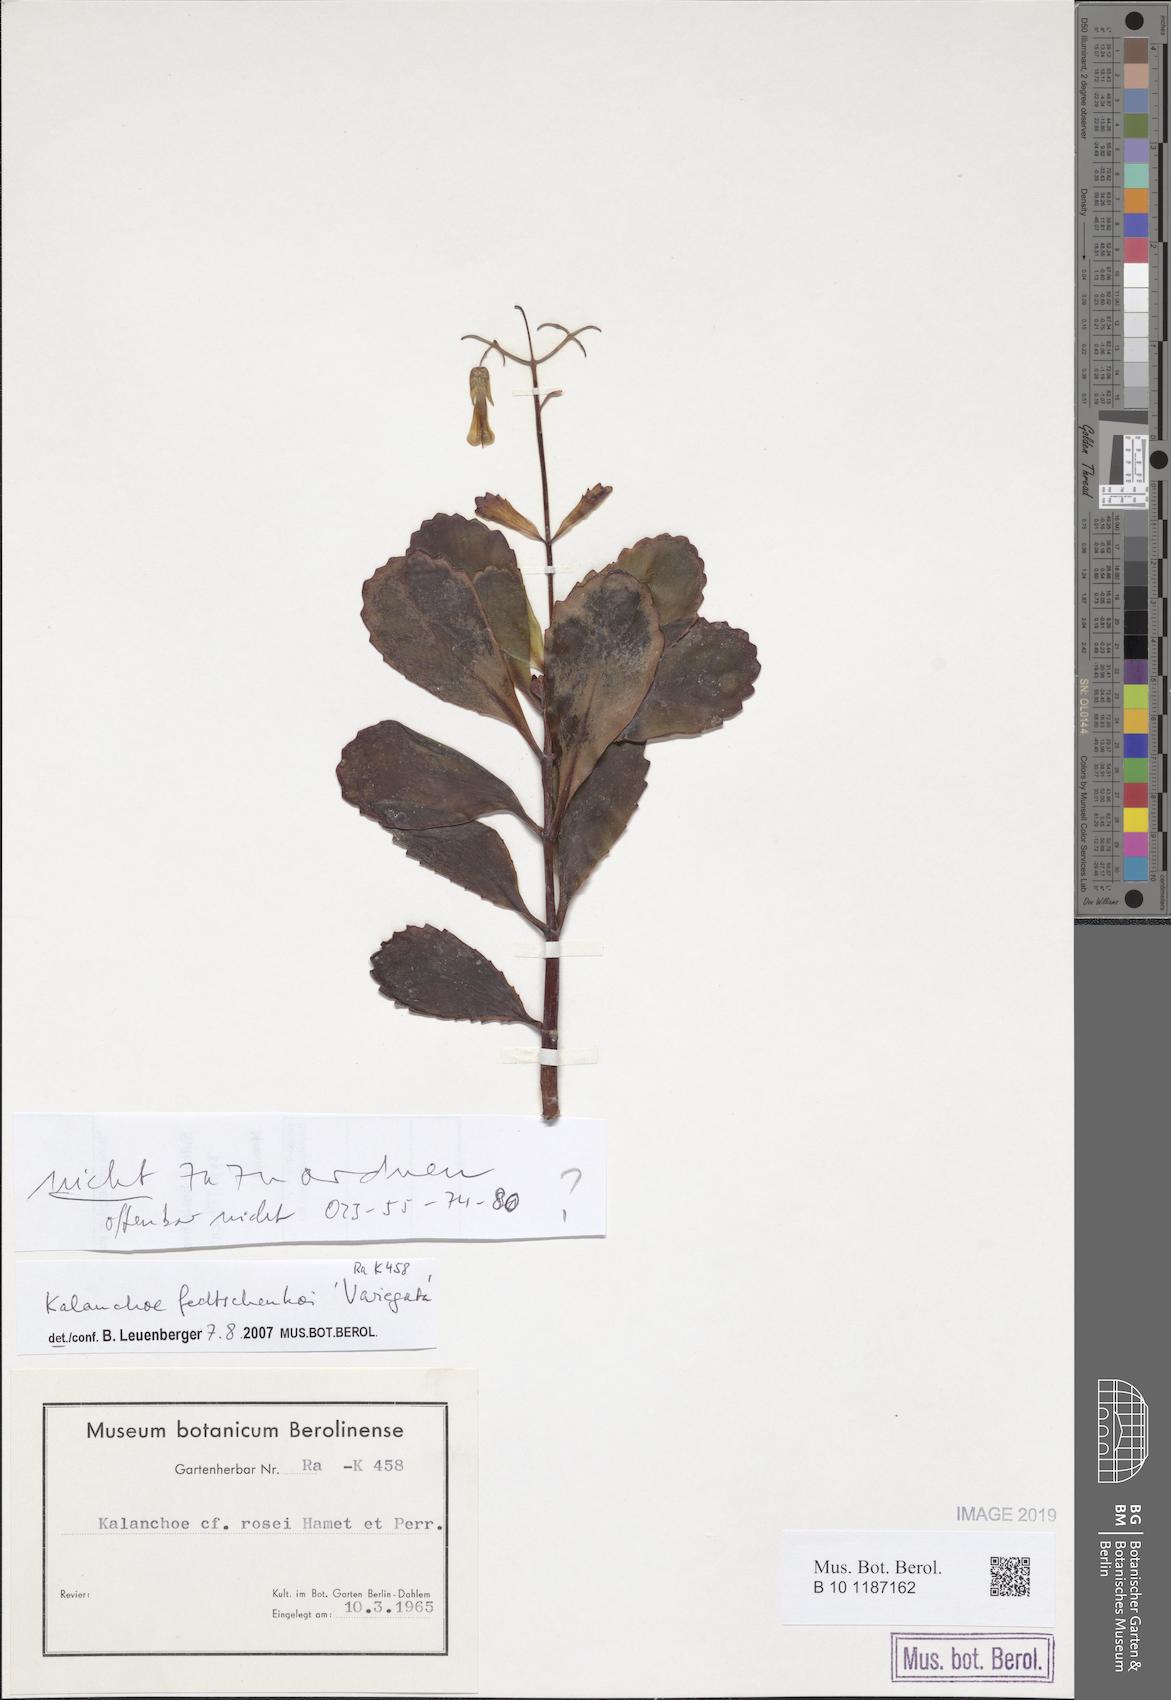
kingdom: Plantae
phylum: Tracheophyta
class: Magnoliopsida
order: Saxifragales
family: Crassulaceae
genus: Kalanchoe
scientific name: Kalanchoe fedtschenkoi
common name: Lavender scallops
